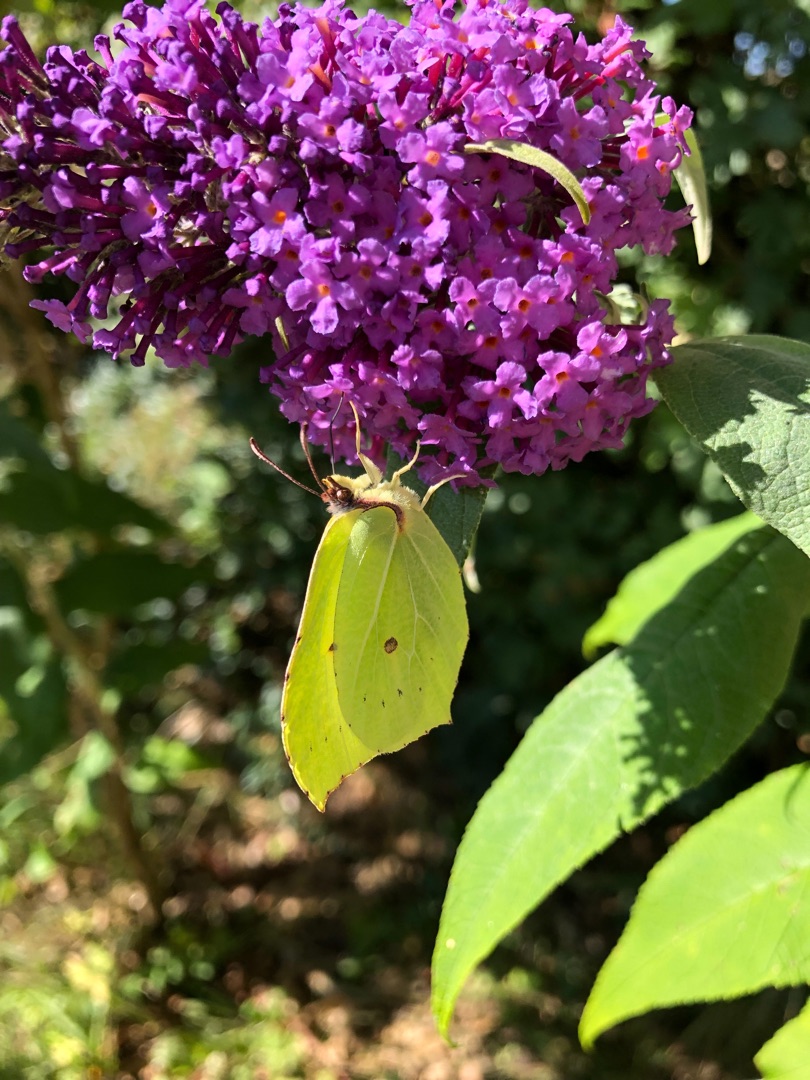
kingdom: Animalia
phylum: Arthropoda
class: Insecta
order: Lepidoptera
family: Pieridae
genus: Gonepteryx
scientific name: Gonepteryx rhamni
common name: Citronsommerfugl
